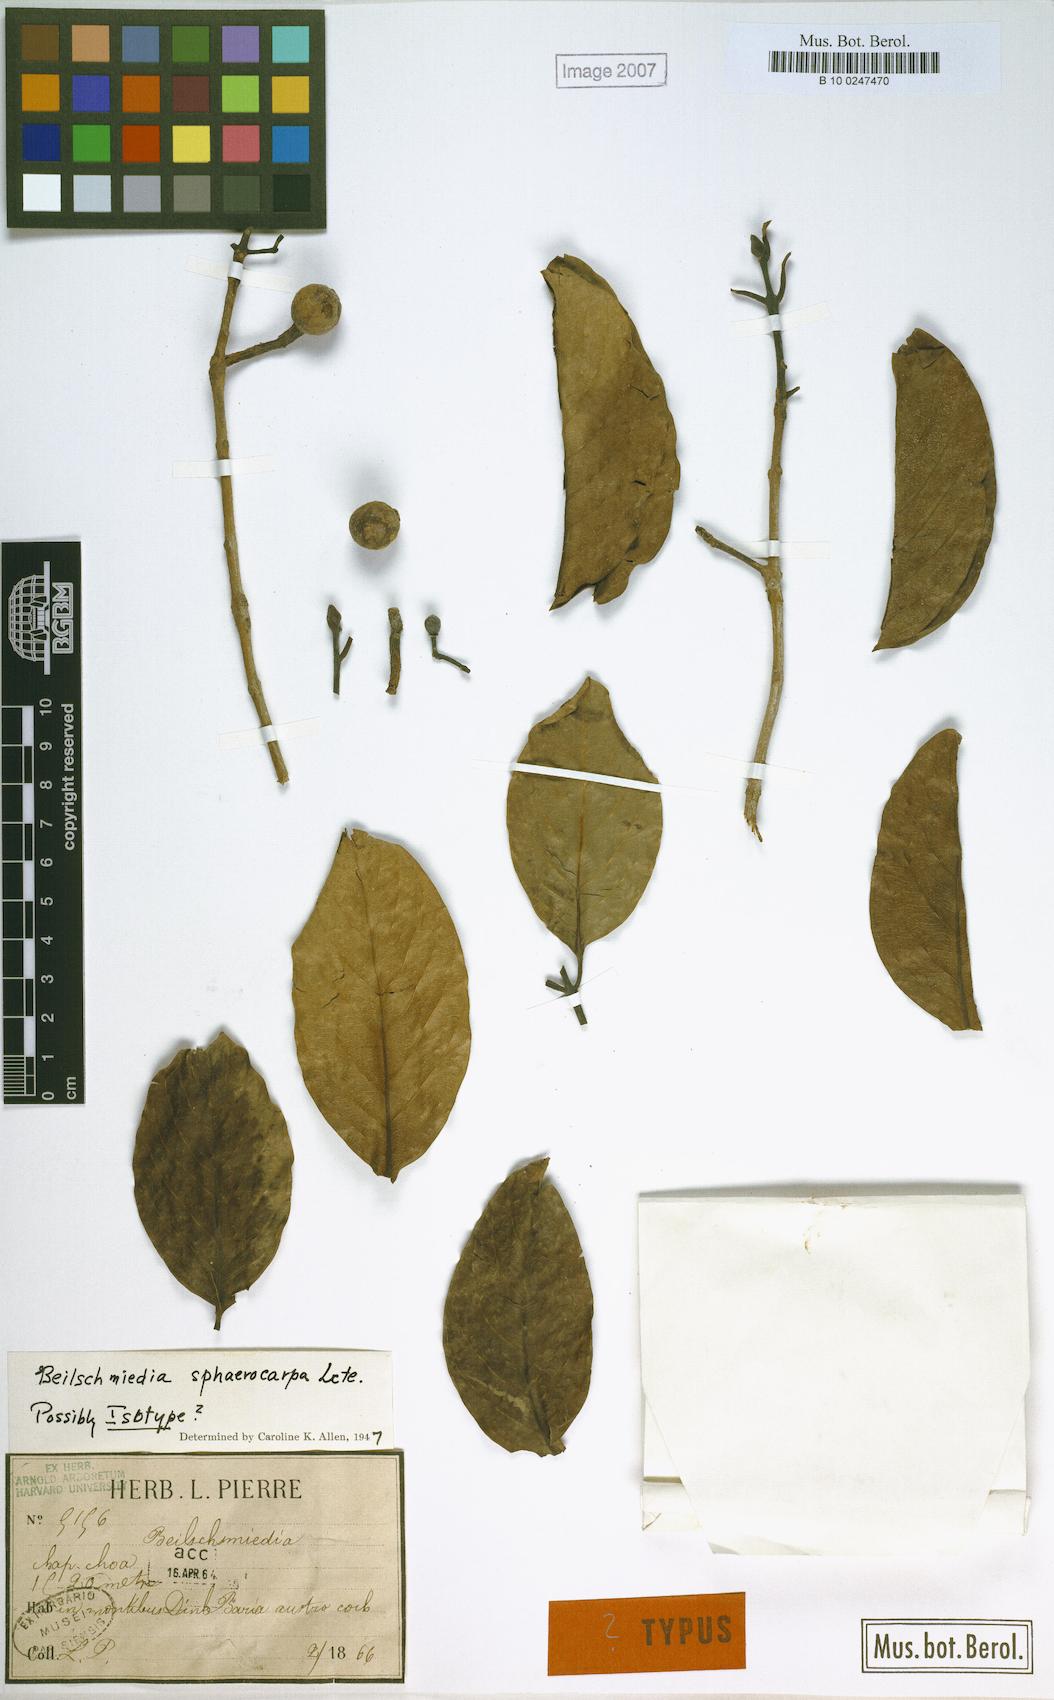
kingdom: Plantae
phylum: Tracheophyta
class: Magnoliopsida
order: Laurales
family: Lauraceae
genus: Machilus
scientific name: Machilus sphaerocarpus
